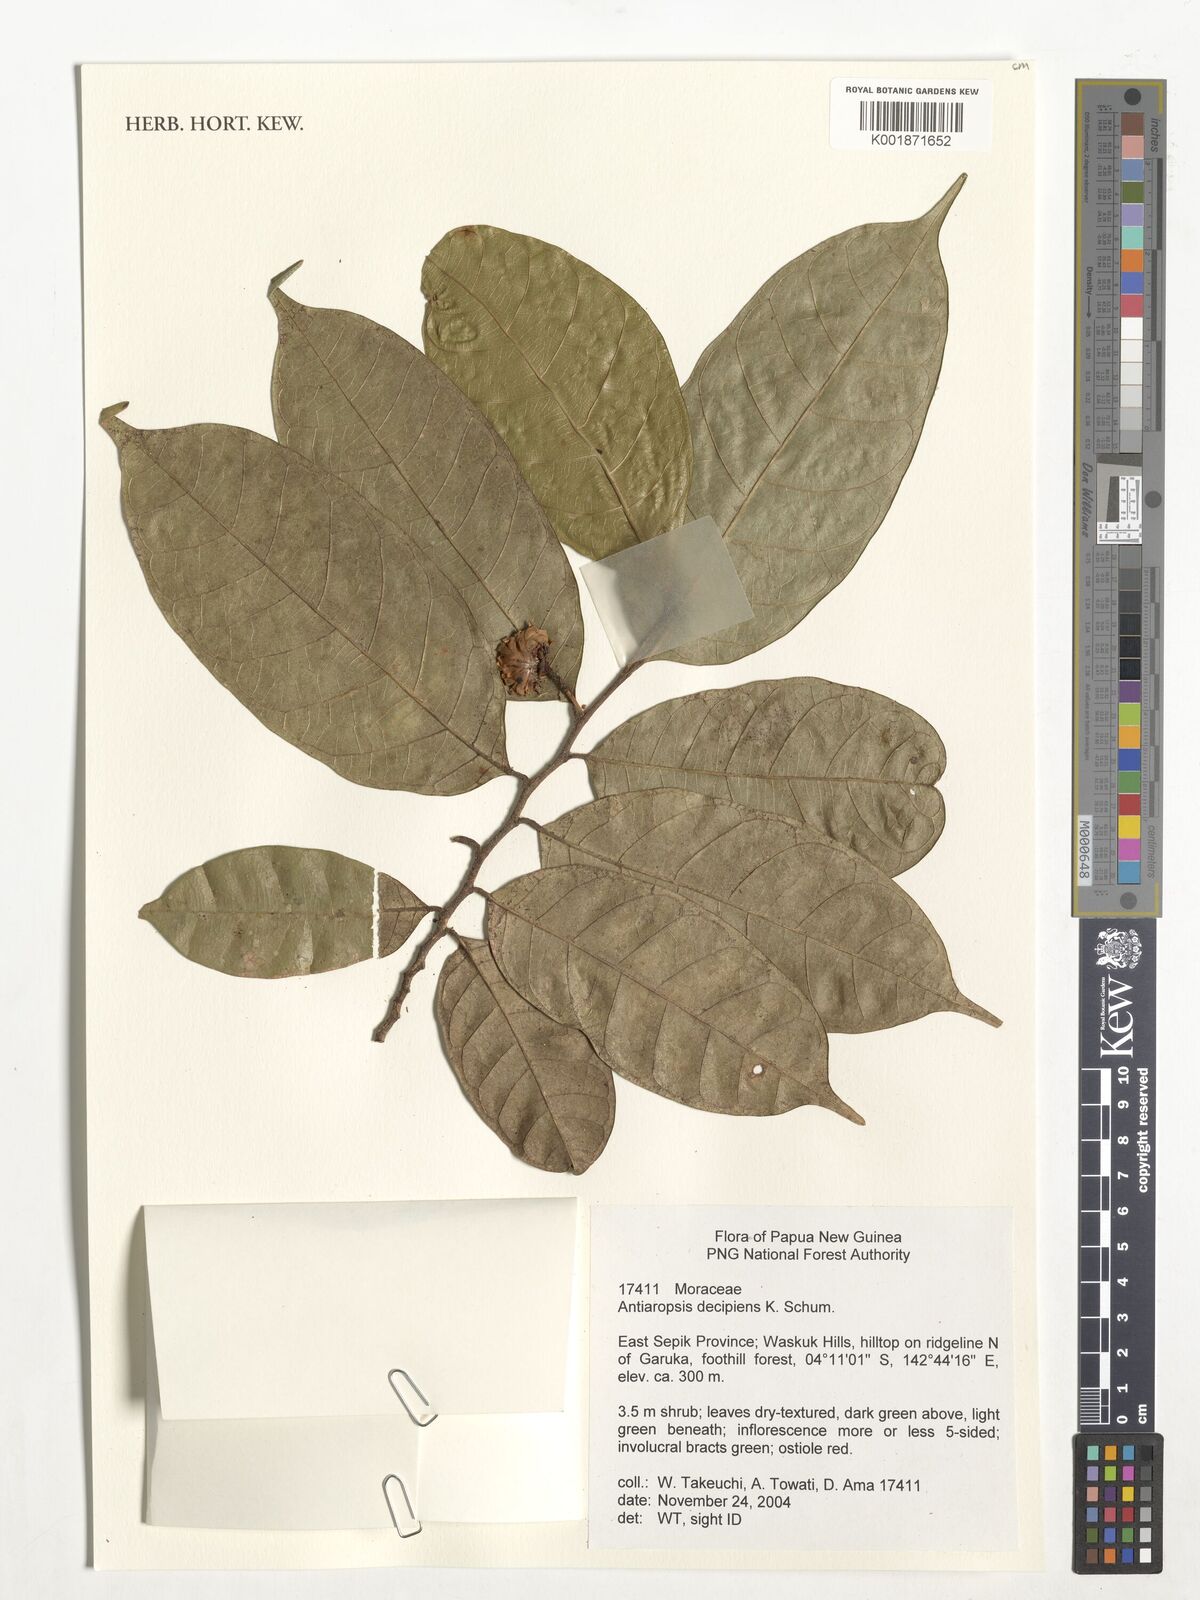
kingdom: Plantae
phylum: Tracheophyta
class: Magnoliopsida
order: Rosales
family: Moraceae
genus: Antiaropsis
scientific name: Antiaropsis decipiens
